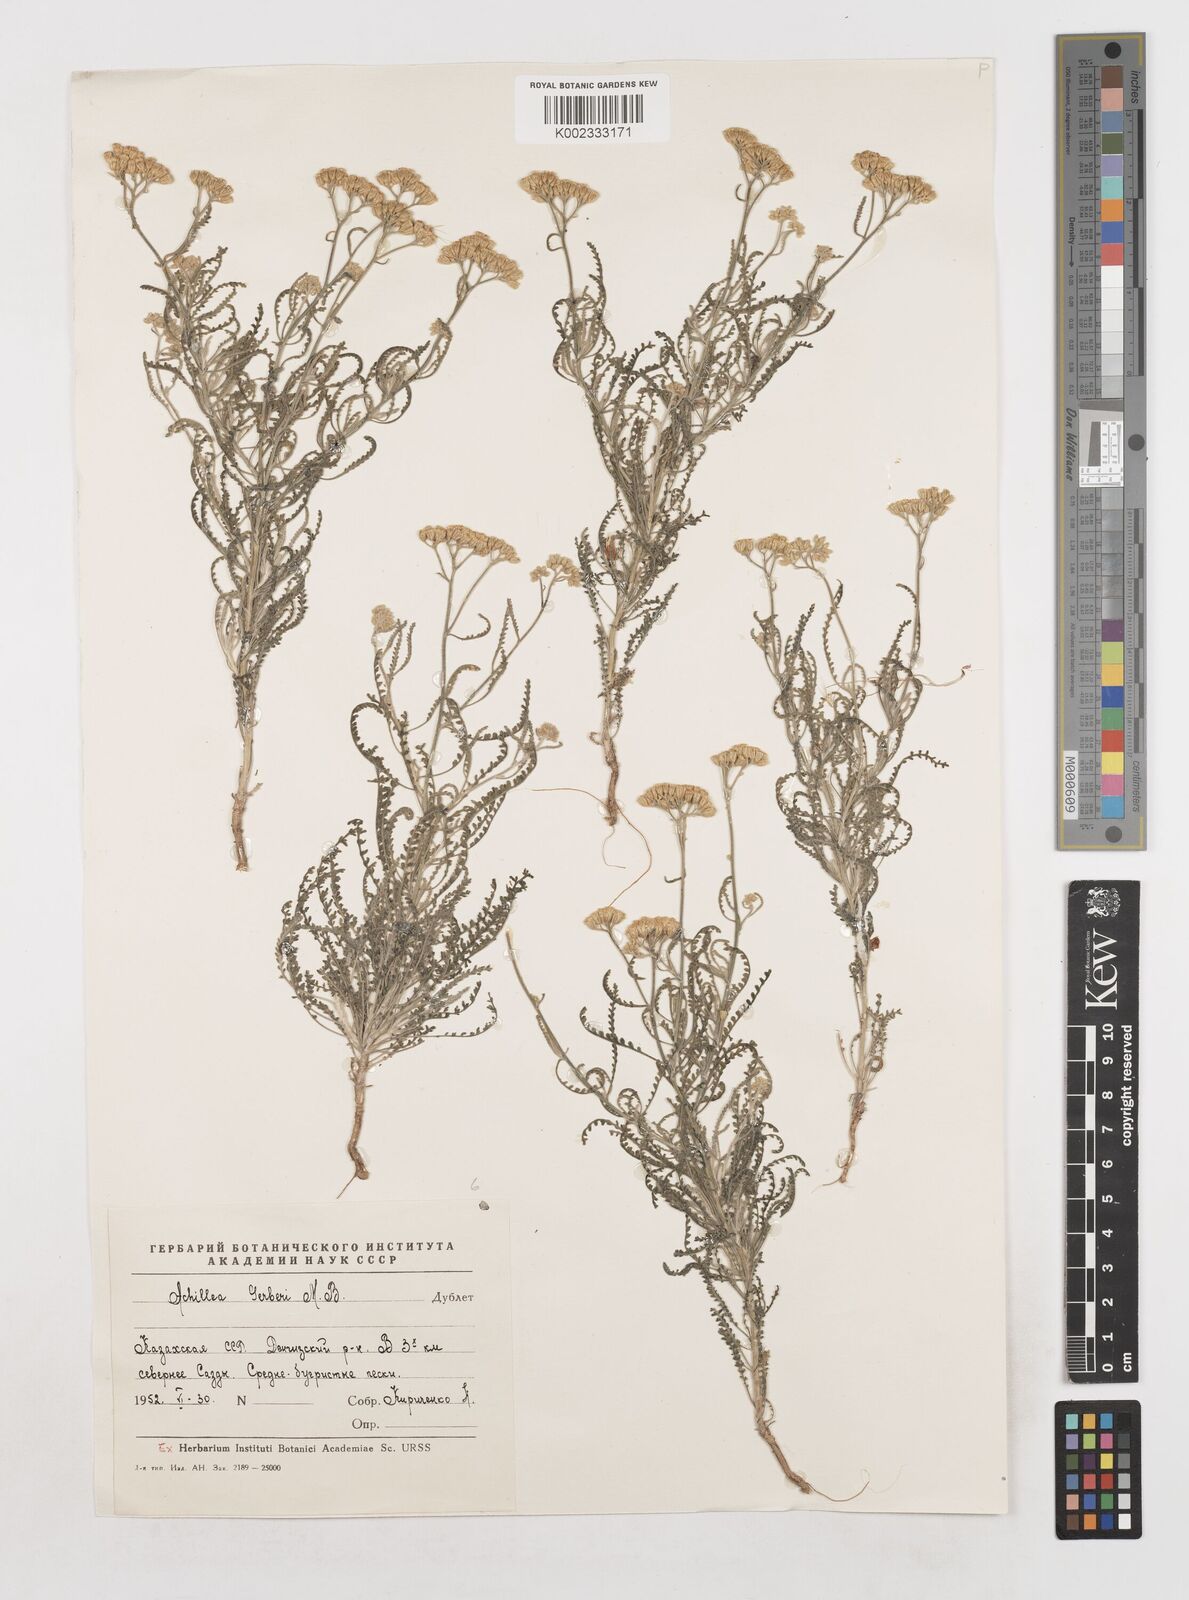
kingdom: Plantae
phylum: Tracheophyta
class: Magnoliopsida
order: Asterales
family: Asteraceae
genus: Achillea
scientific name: Achillea nobilis
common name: Noble yarrow
